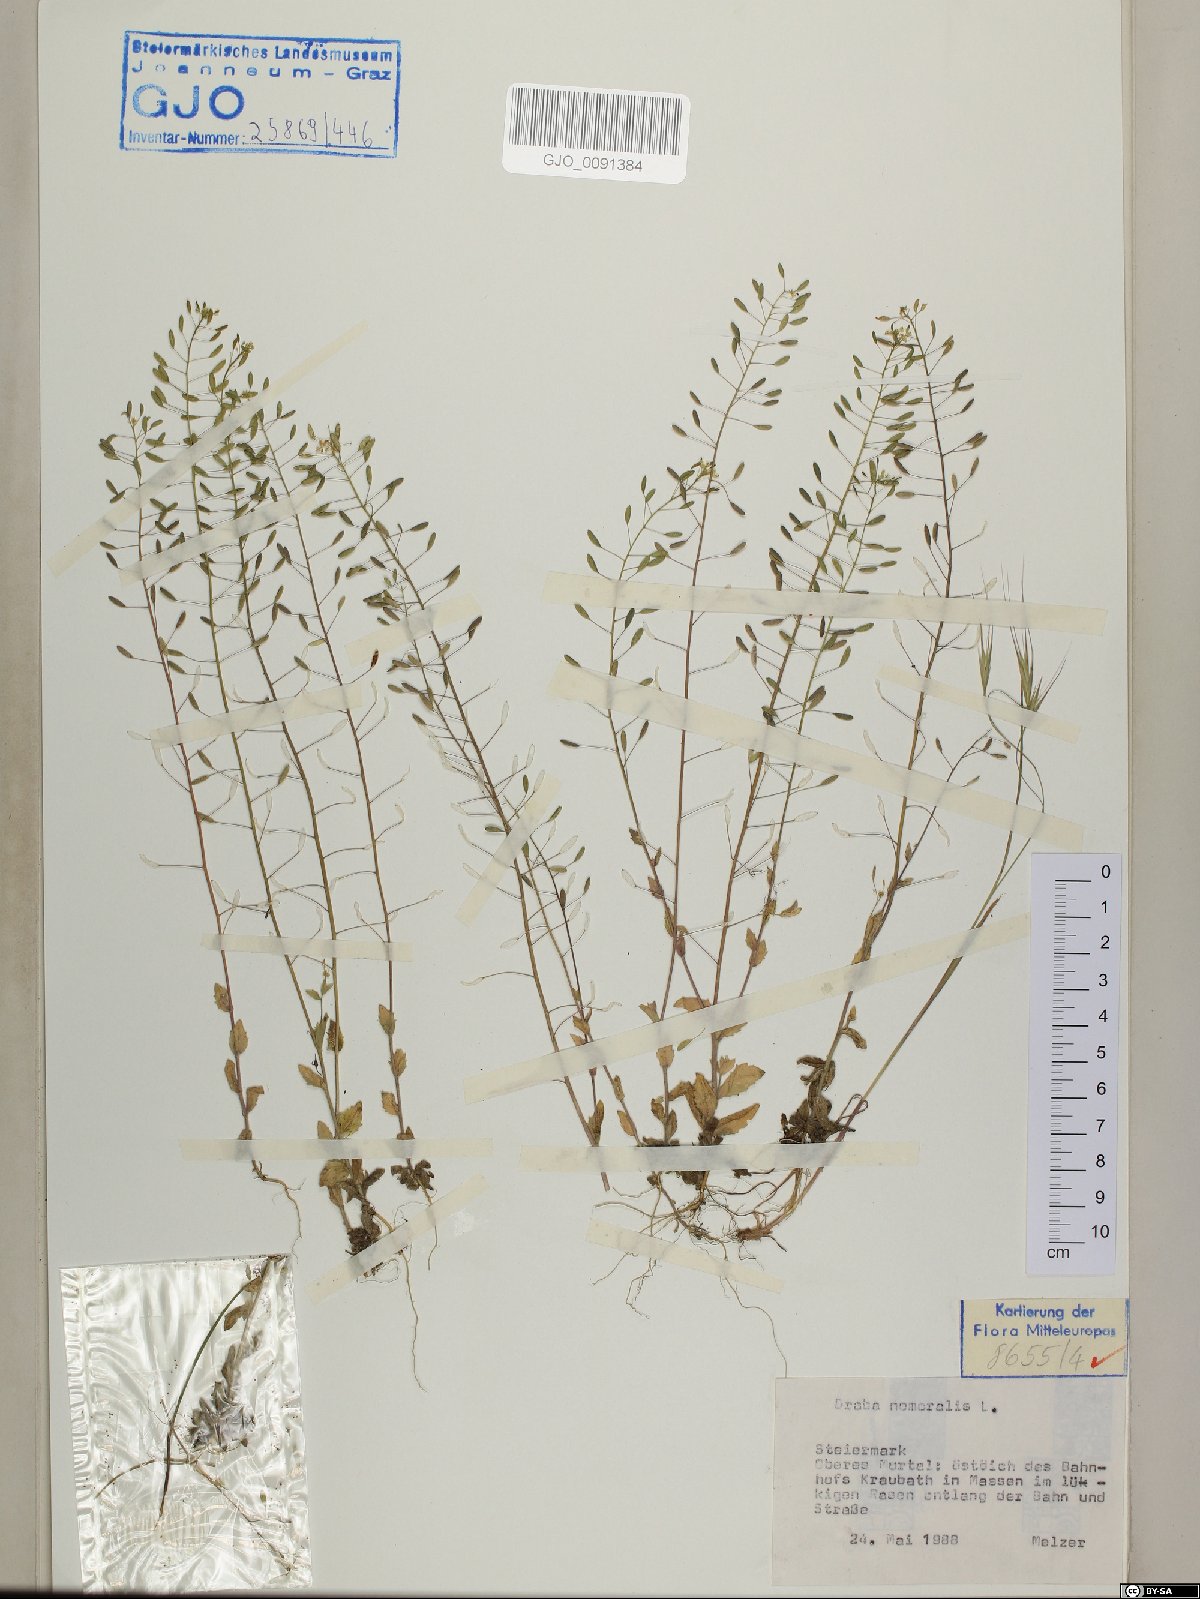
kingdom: Plantae
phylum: Tracheophyta
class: Magnoliopsida
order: Brassicales
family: Brassicaceae
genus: Draba
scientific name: Draba nemorosa
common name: Wood whitlow-grass
